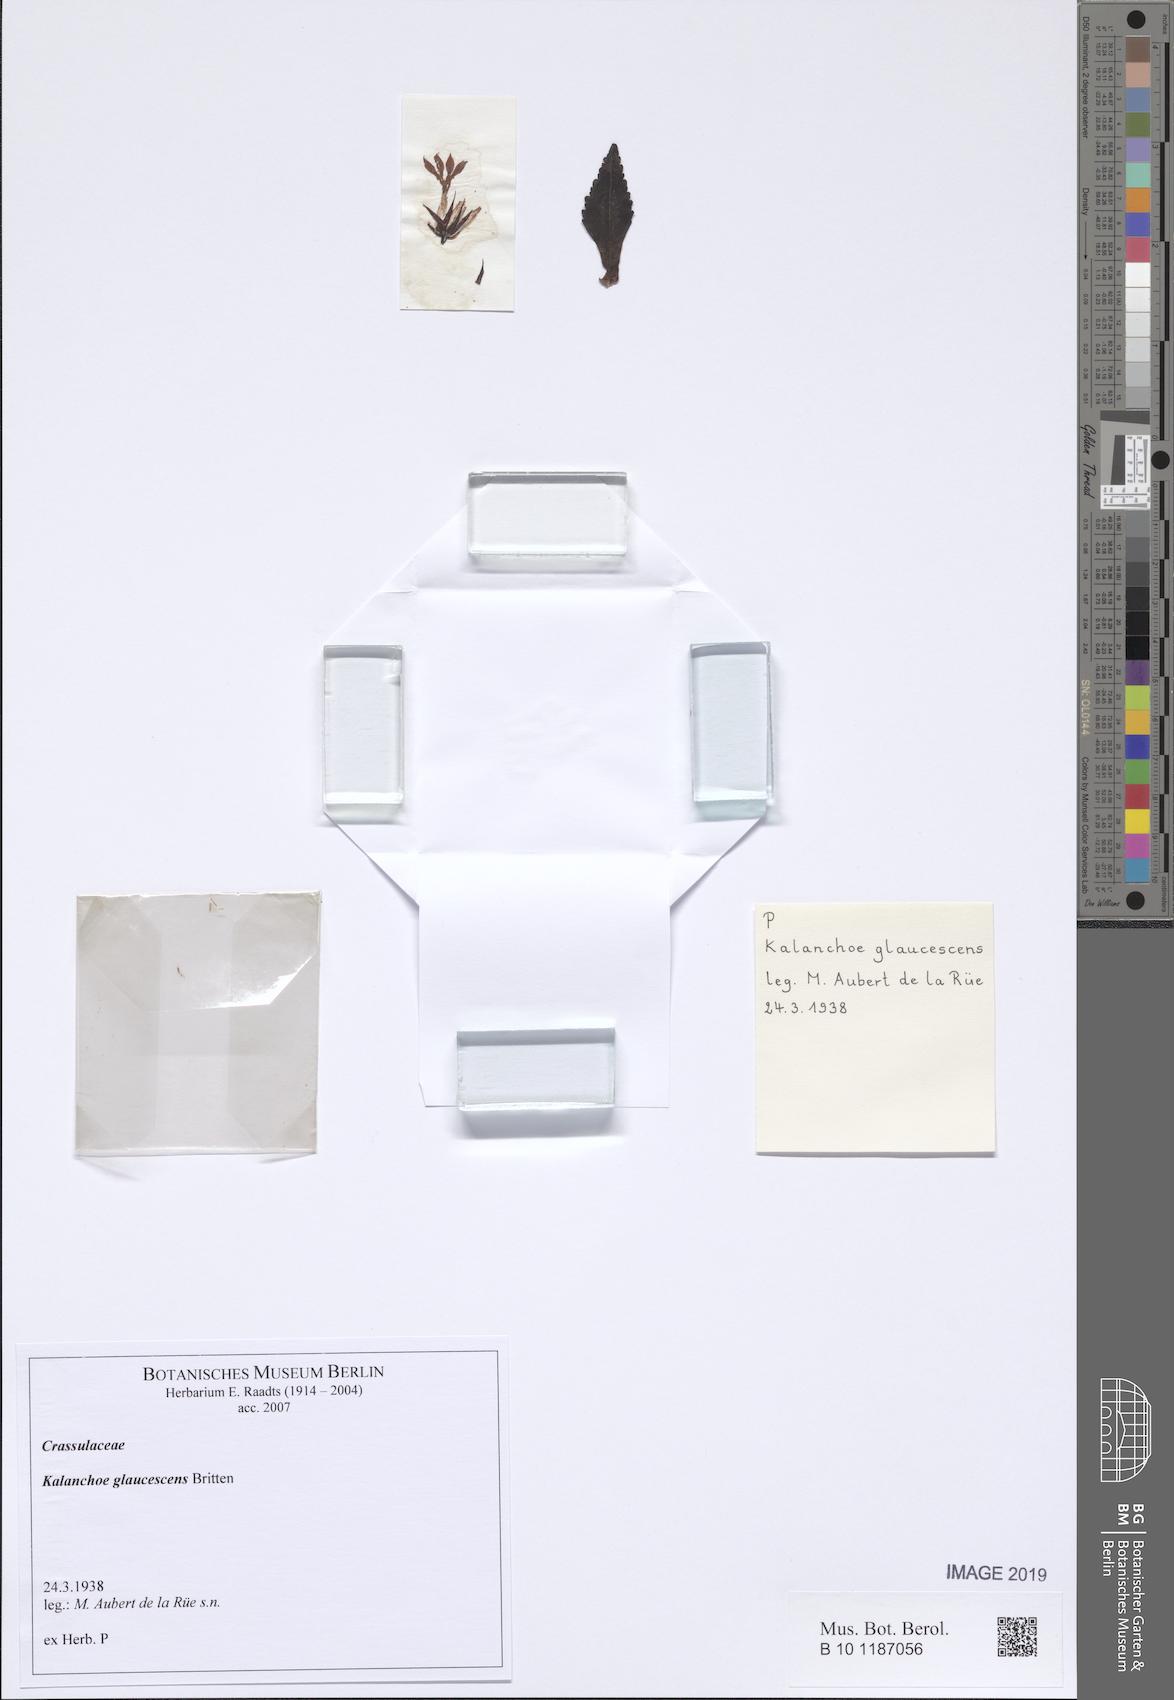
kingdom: Plantae
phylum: Tracheophyta
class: Magnoliopsida
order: Saxifragales
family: Crassulaceae
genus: Kalanchoe
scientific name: Kalanchoe glaucescens
